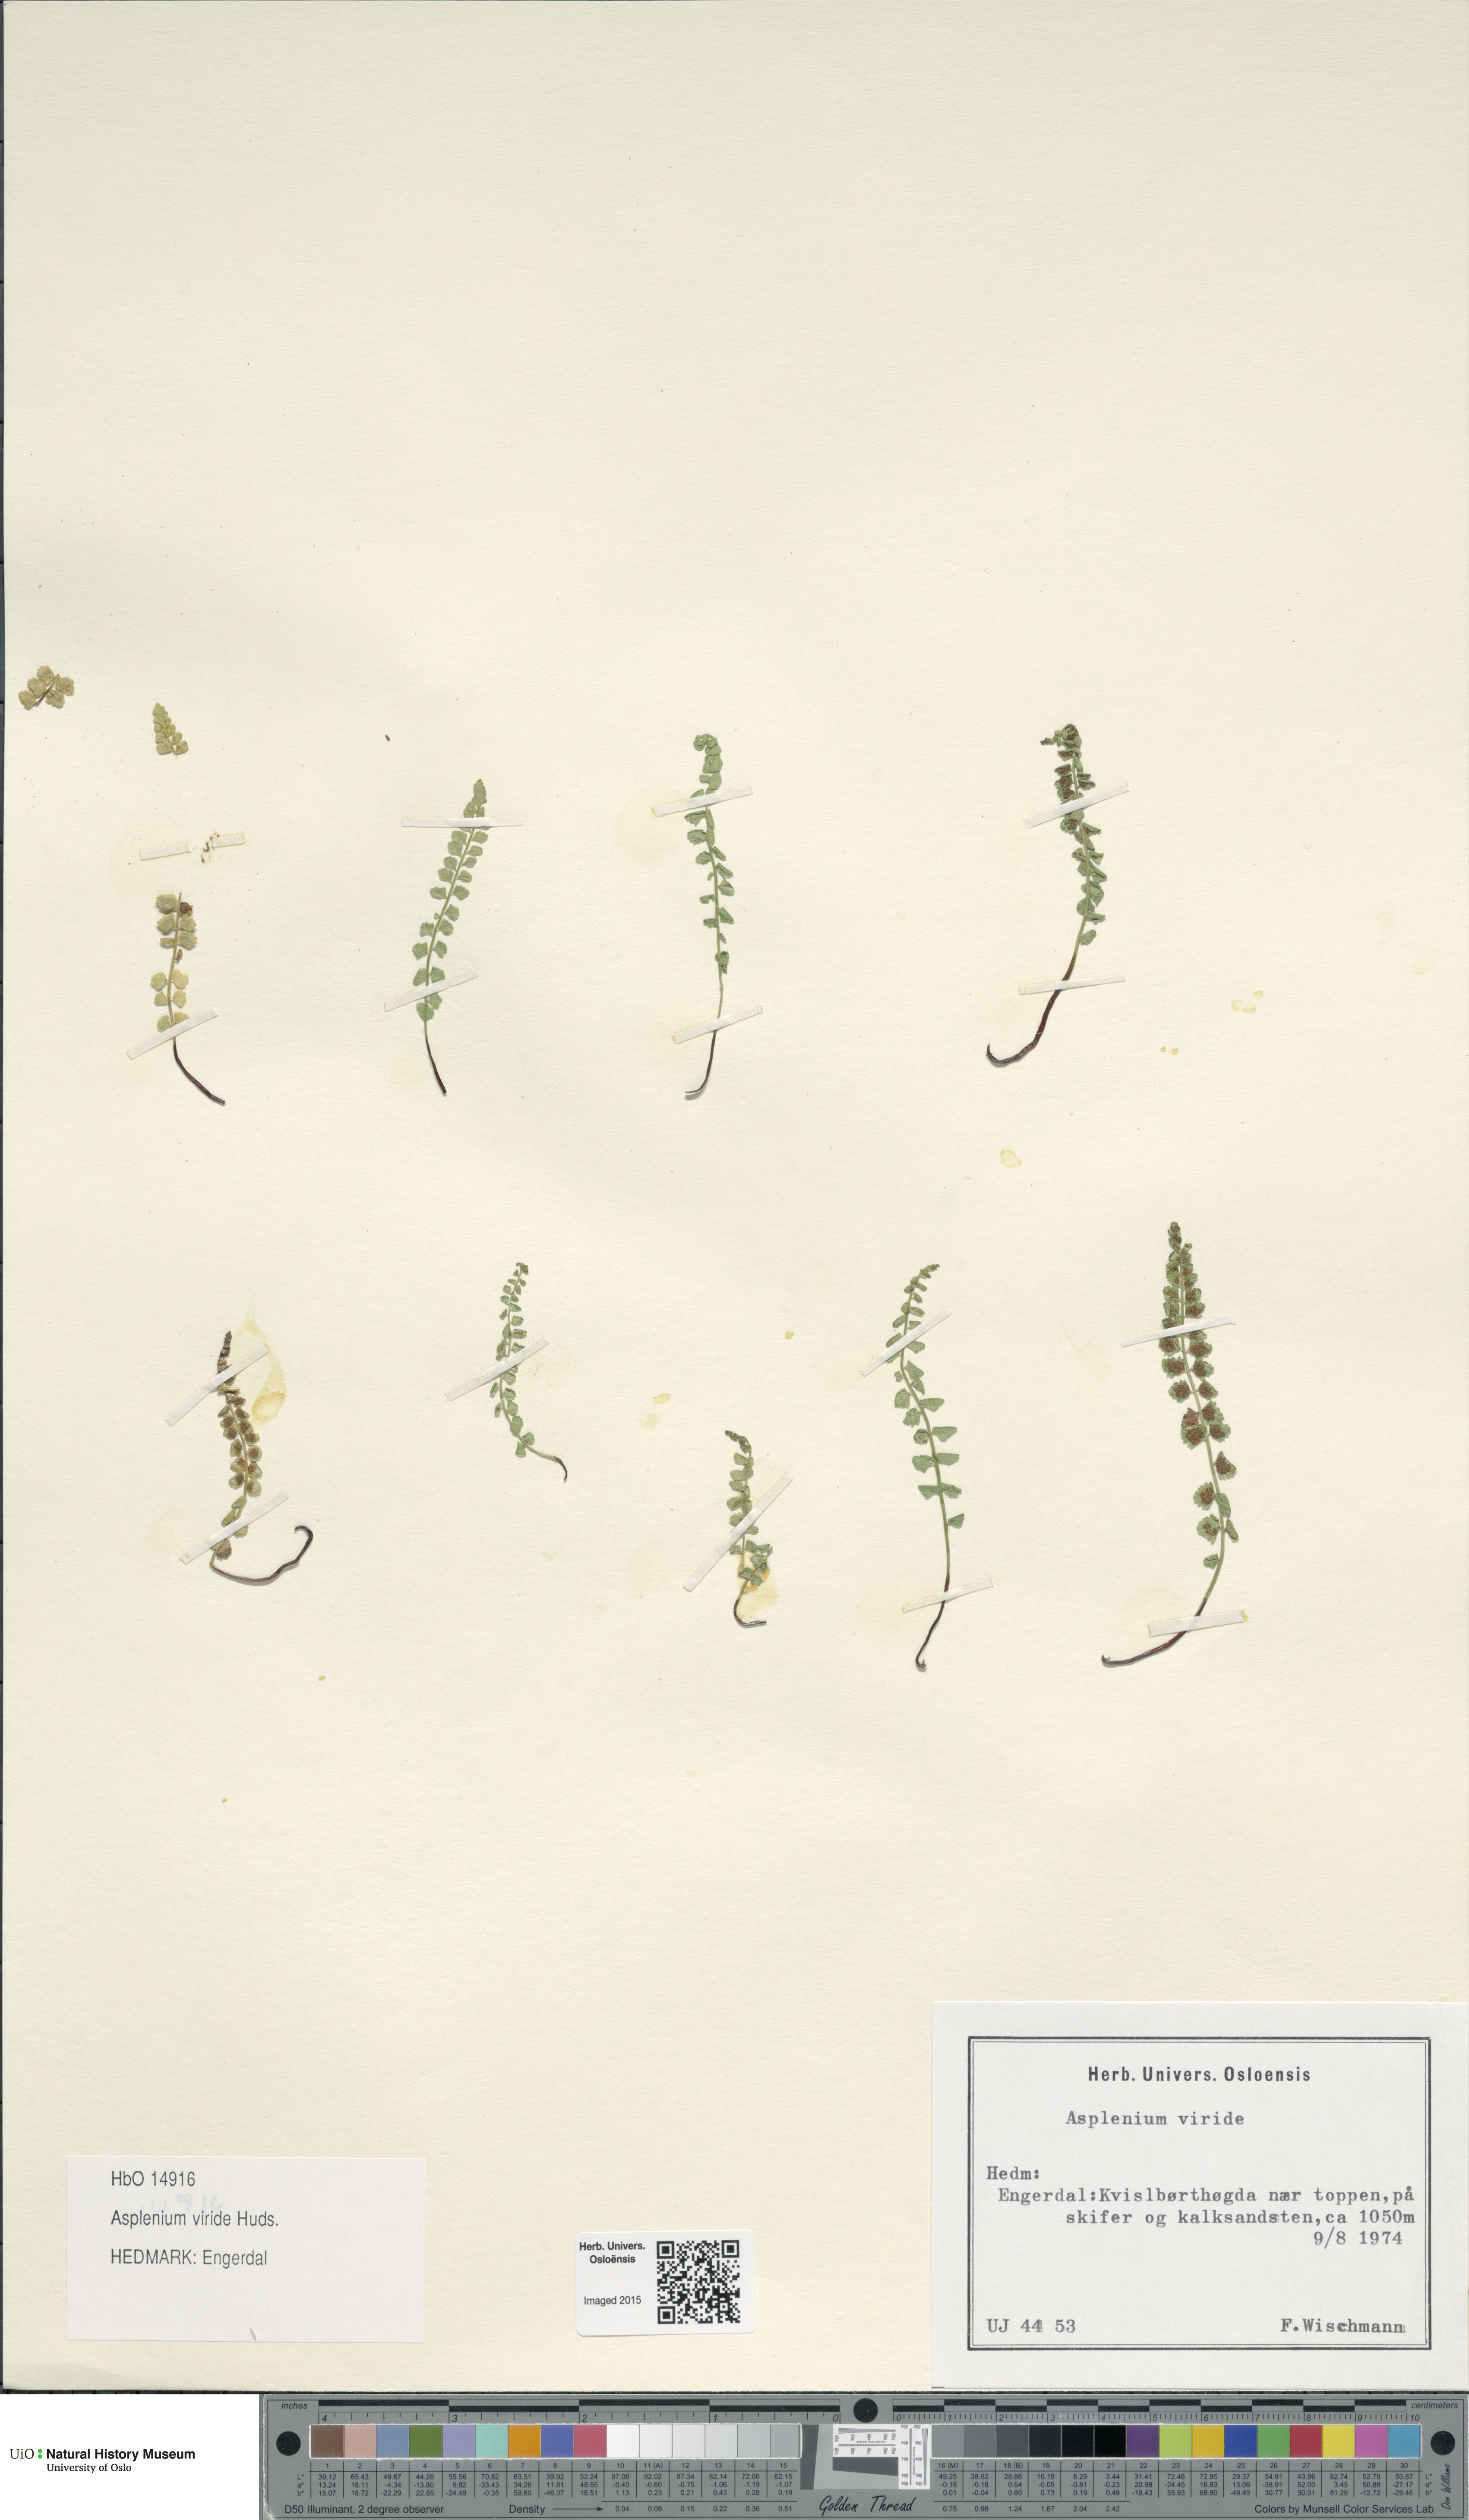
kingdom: Plantae
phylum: Tracheophyta
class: Polypodiopsida
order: Polypodiales
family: Aspleniaceae
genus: Asplenium
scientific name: Asplenium viride
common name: Green spleenwort
